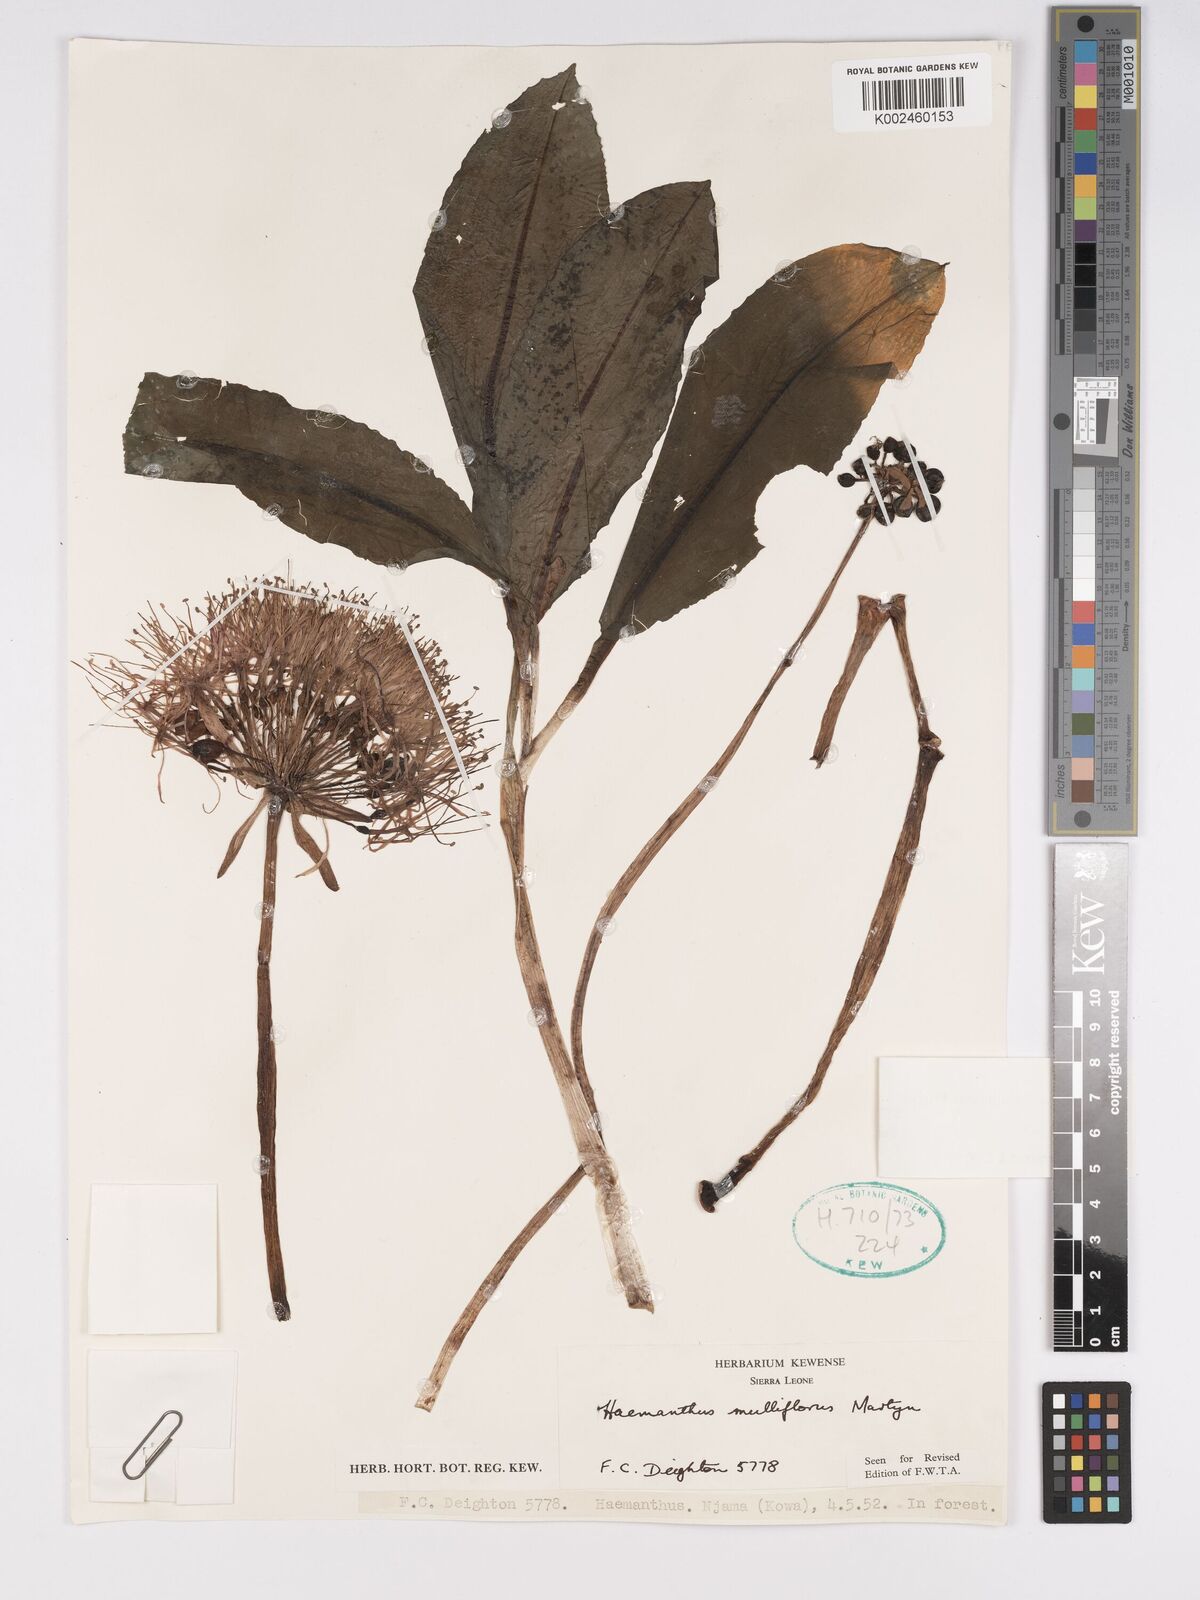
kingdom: Plantae
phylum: Tracheophyta
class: Liliopsida
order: Asparagales
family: Amaryllidaceae
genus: Scadoxus
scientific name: Scadoxus multiflorus
